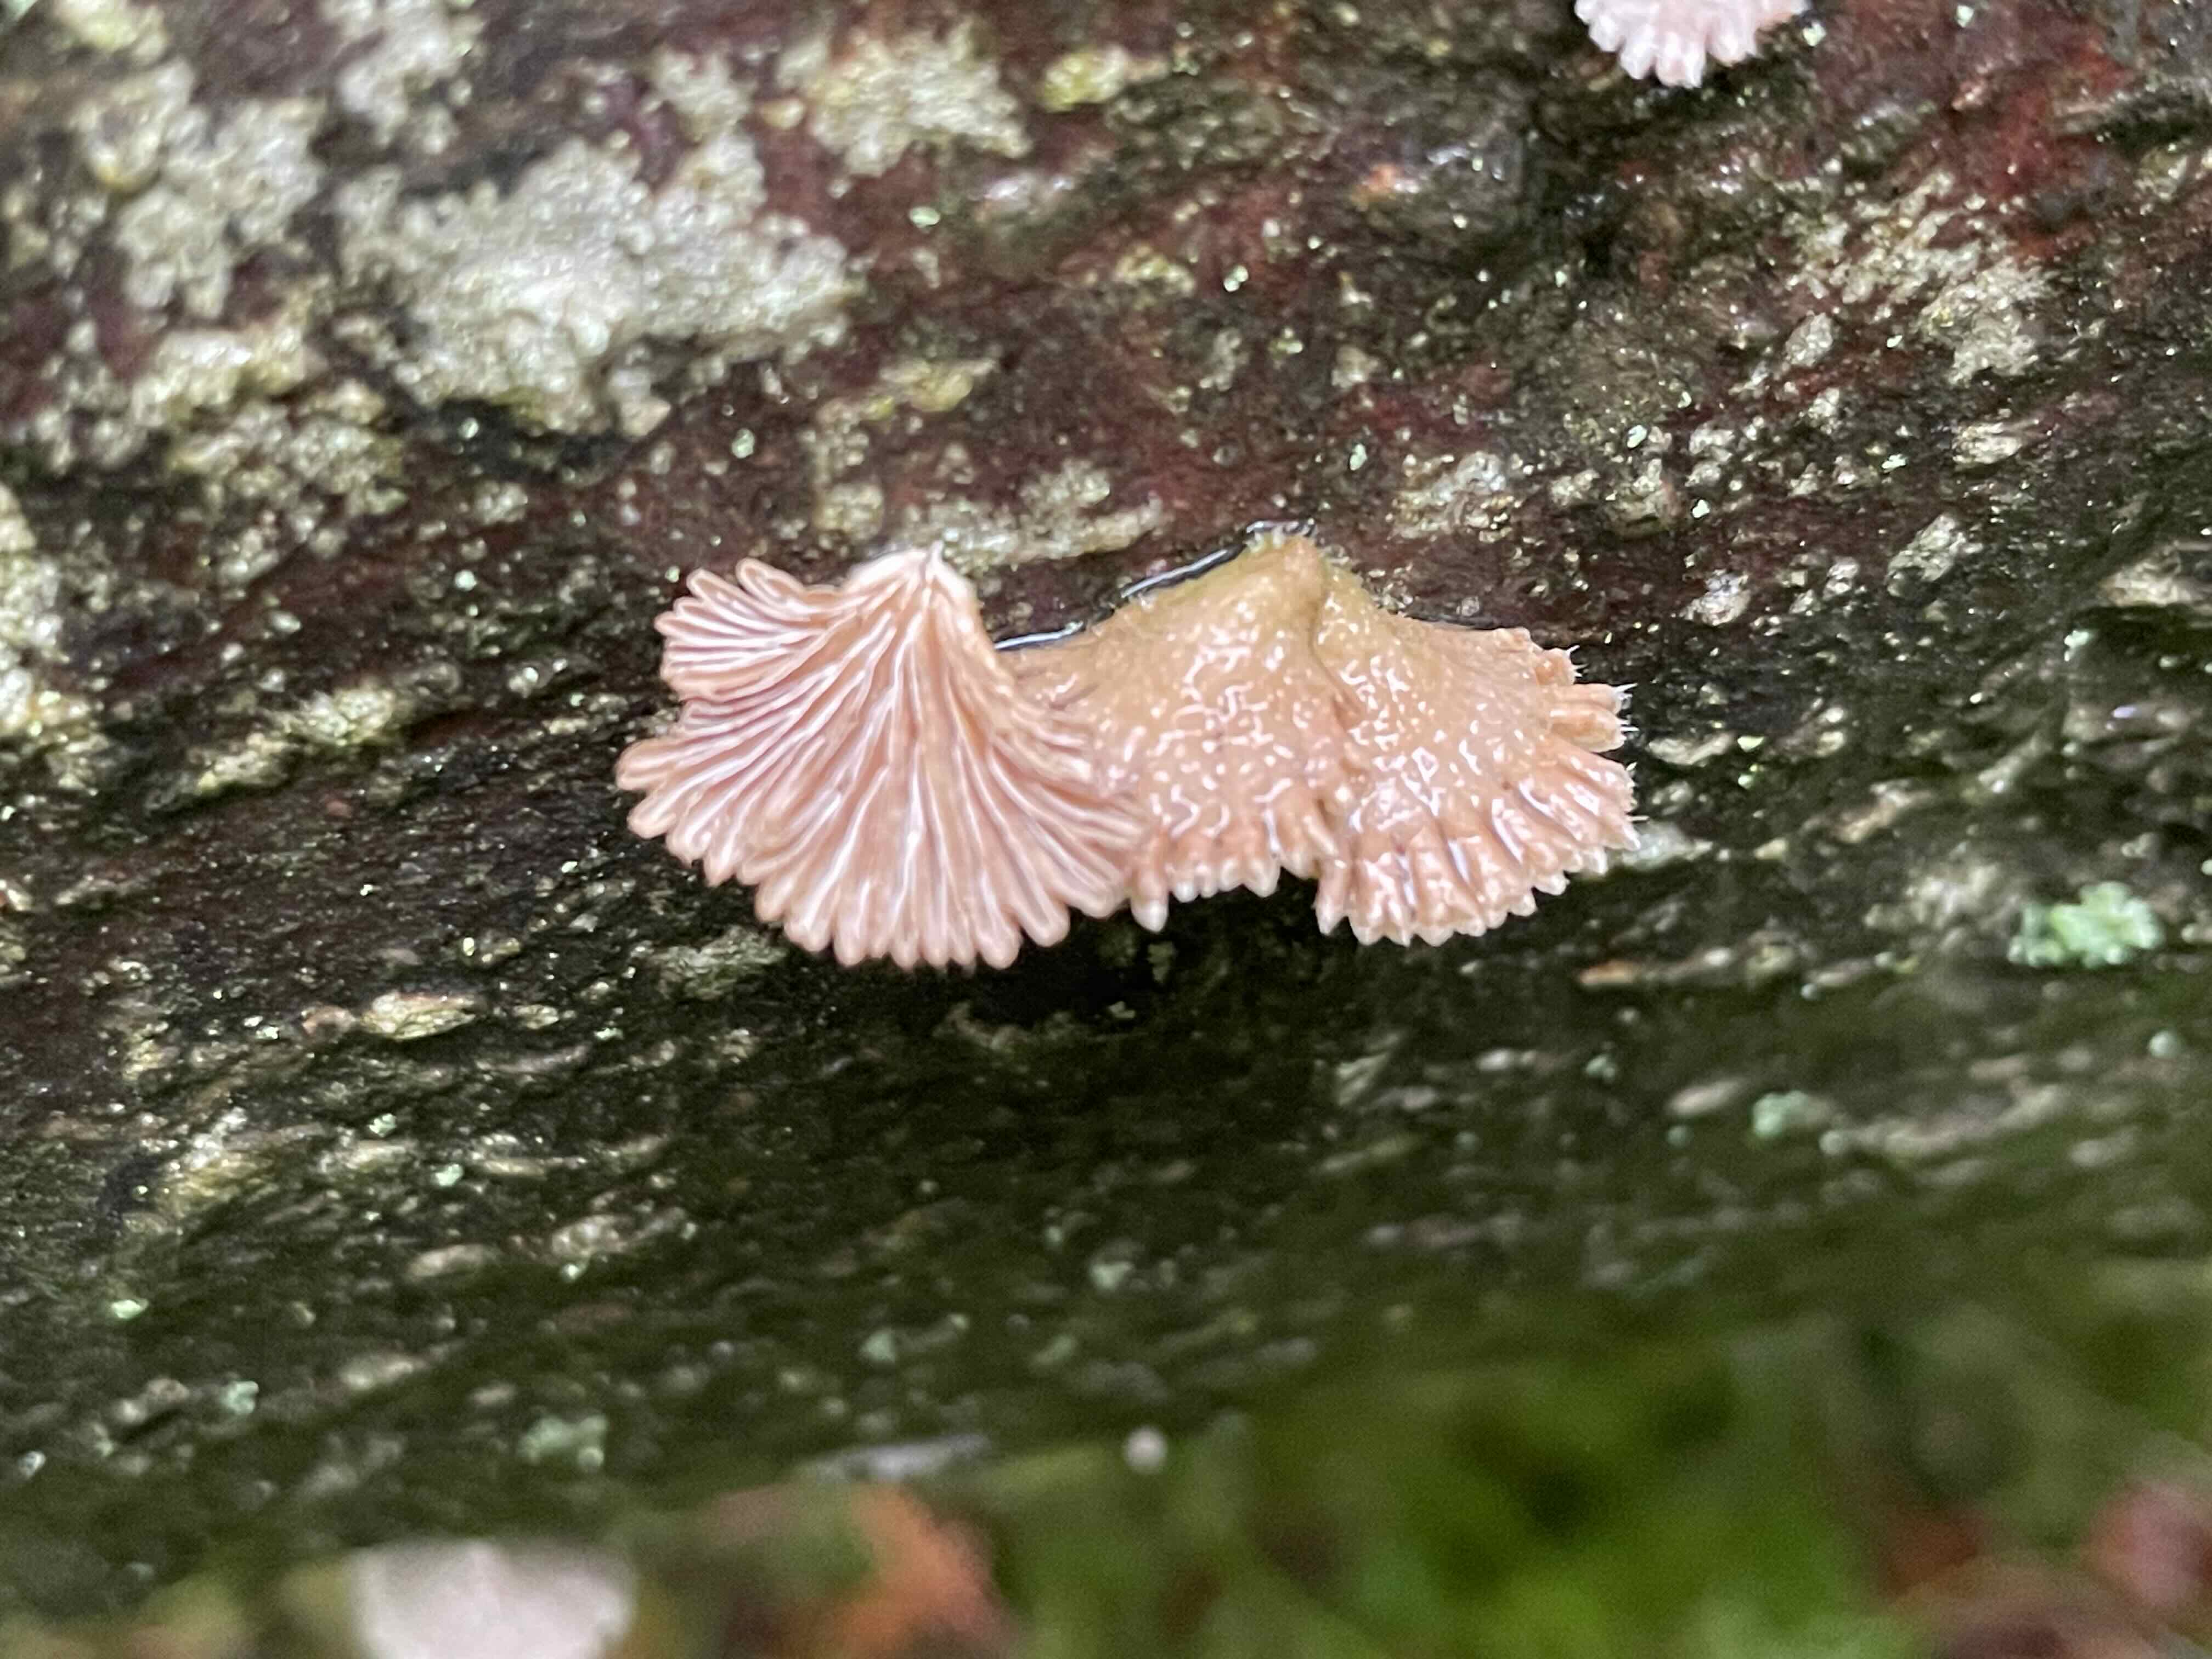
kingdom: Fungi
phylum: Basidiomycota
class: Agaricomycetes
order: Agaricales
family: Schizophyllaceae
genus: Schizophyllum
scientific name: Schizophyllum commune
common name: kløvblad
